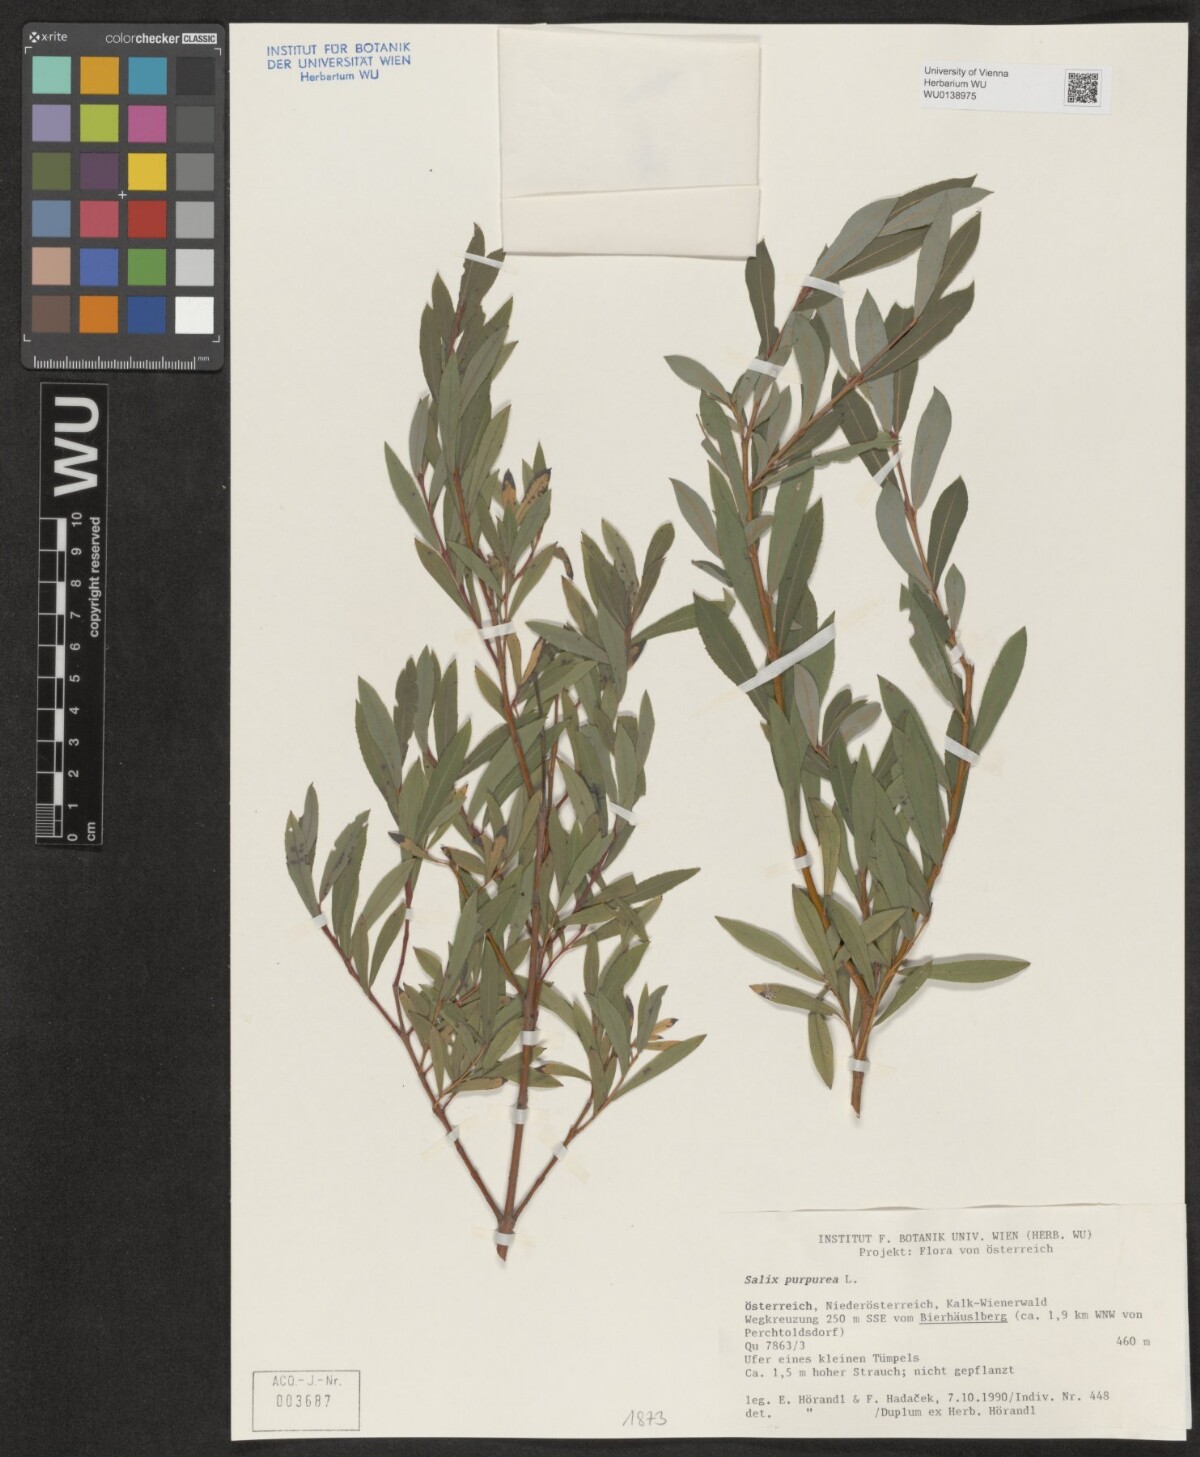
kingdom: Plantae
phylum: Tracheophyta
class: Magnoliopsida
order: Malpighiales
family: Salicaceae
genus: Salix
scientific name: Salix purpurea
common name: Purple willow
